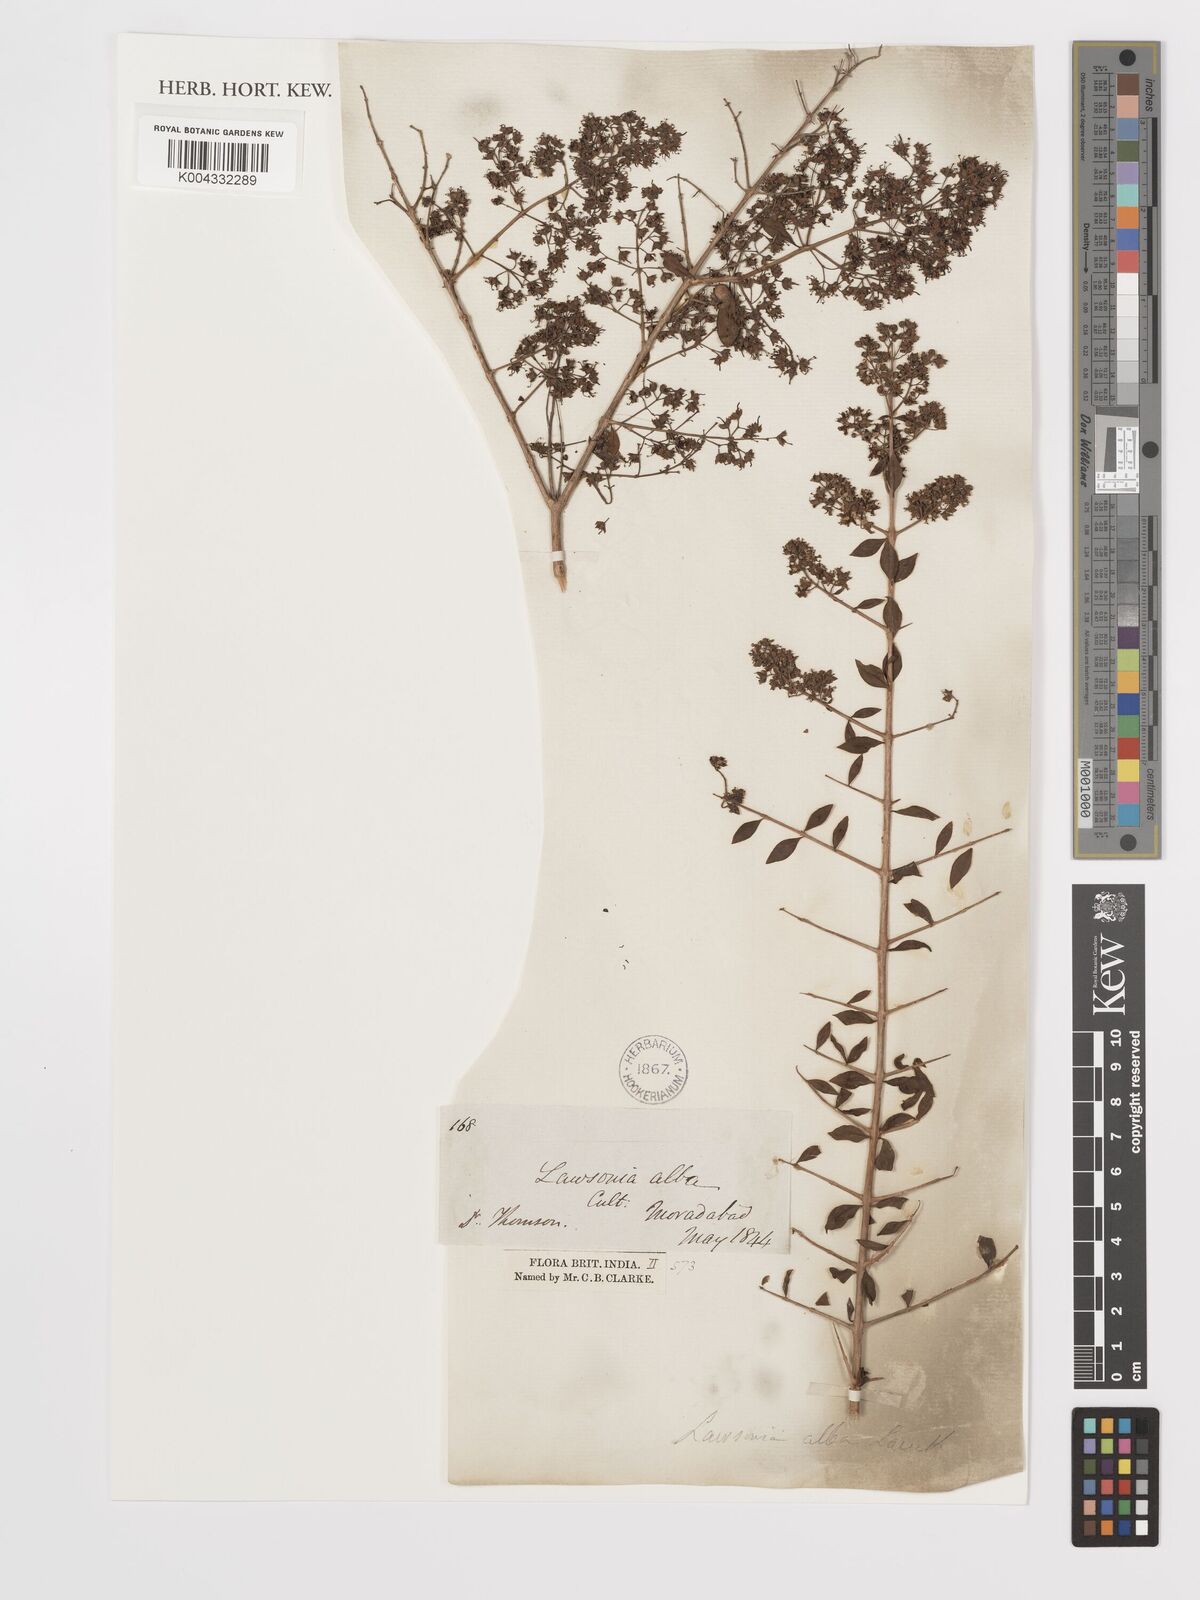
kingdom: Plantae
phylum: Tracheophyta
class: Magnoliopsida
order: Myrtales
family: Lythraceae
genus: Lawsonia
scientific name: Lawsonia inermis
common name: Henna
